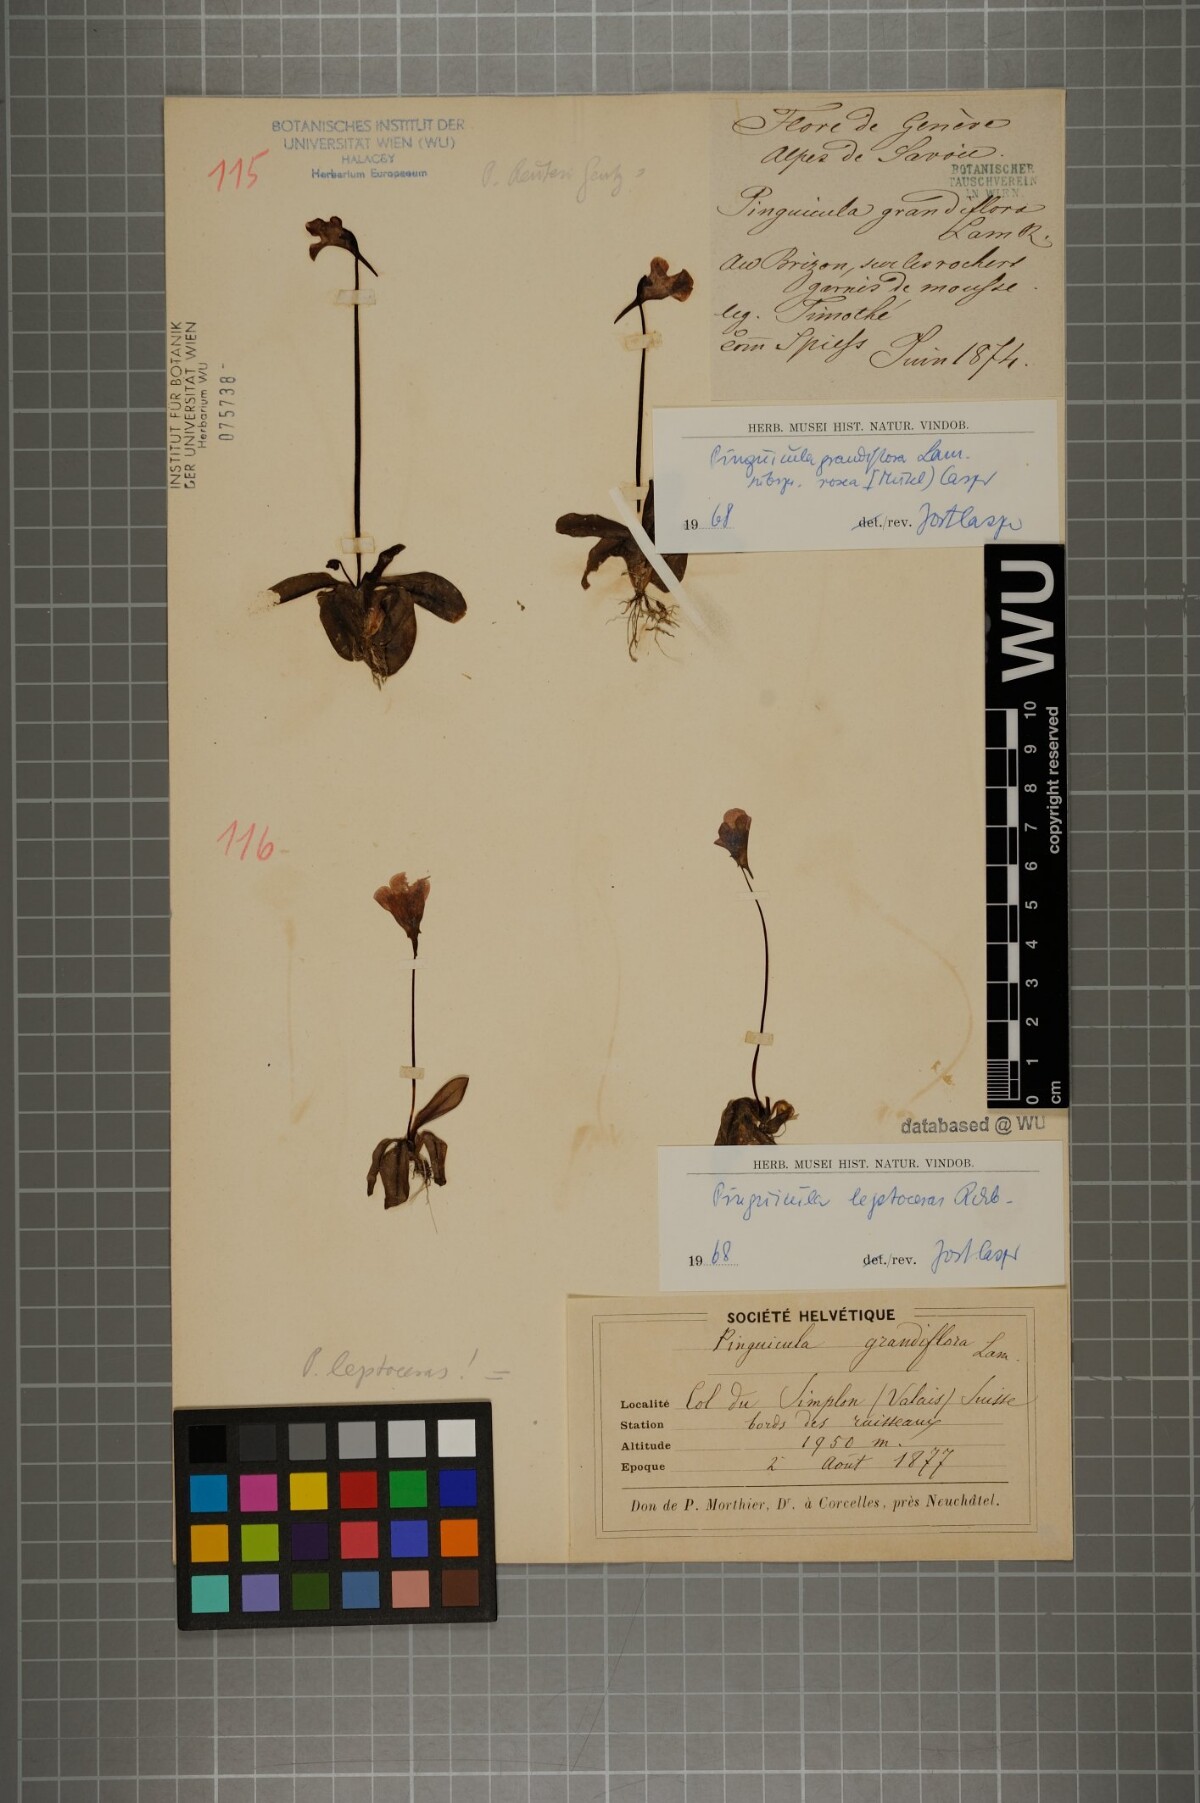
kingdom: Plantae
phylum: Tracheophyta
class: Magnoliopsida
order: Lamiales
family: Lentibulariaceae
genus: Pinguicula
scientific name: Pinguicula grandiflora
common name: Large-flowered butterwort
